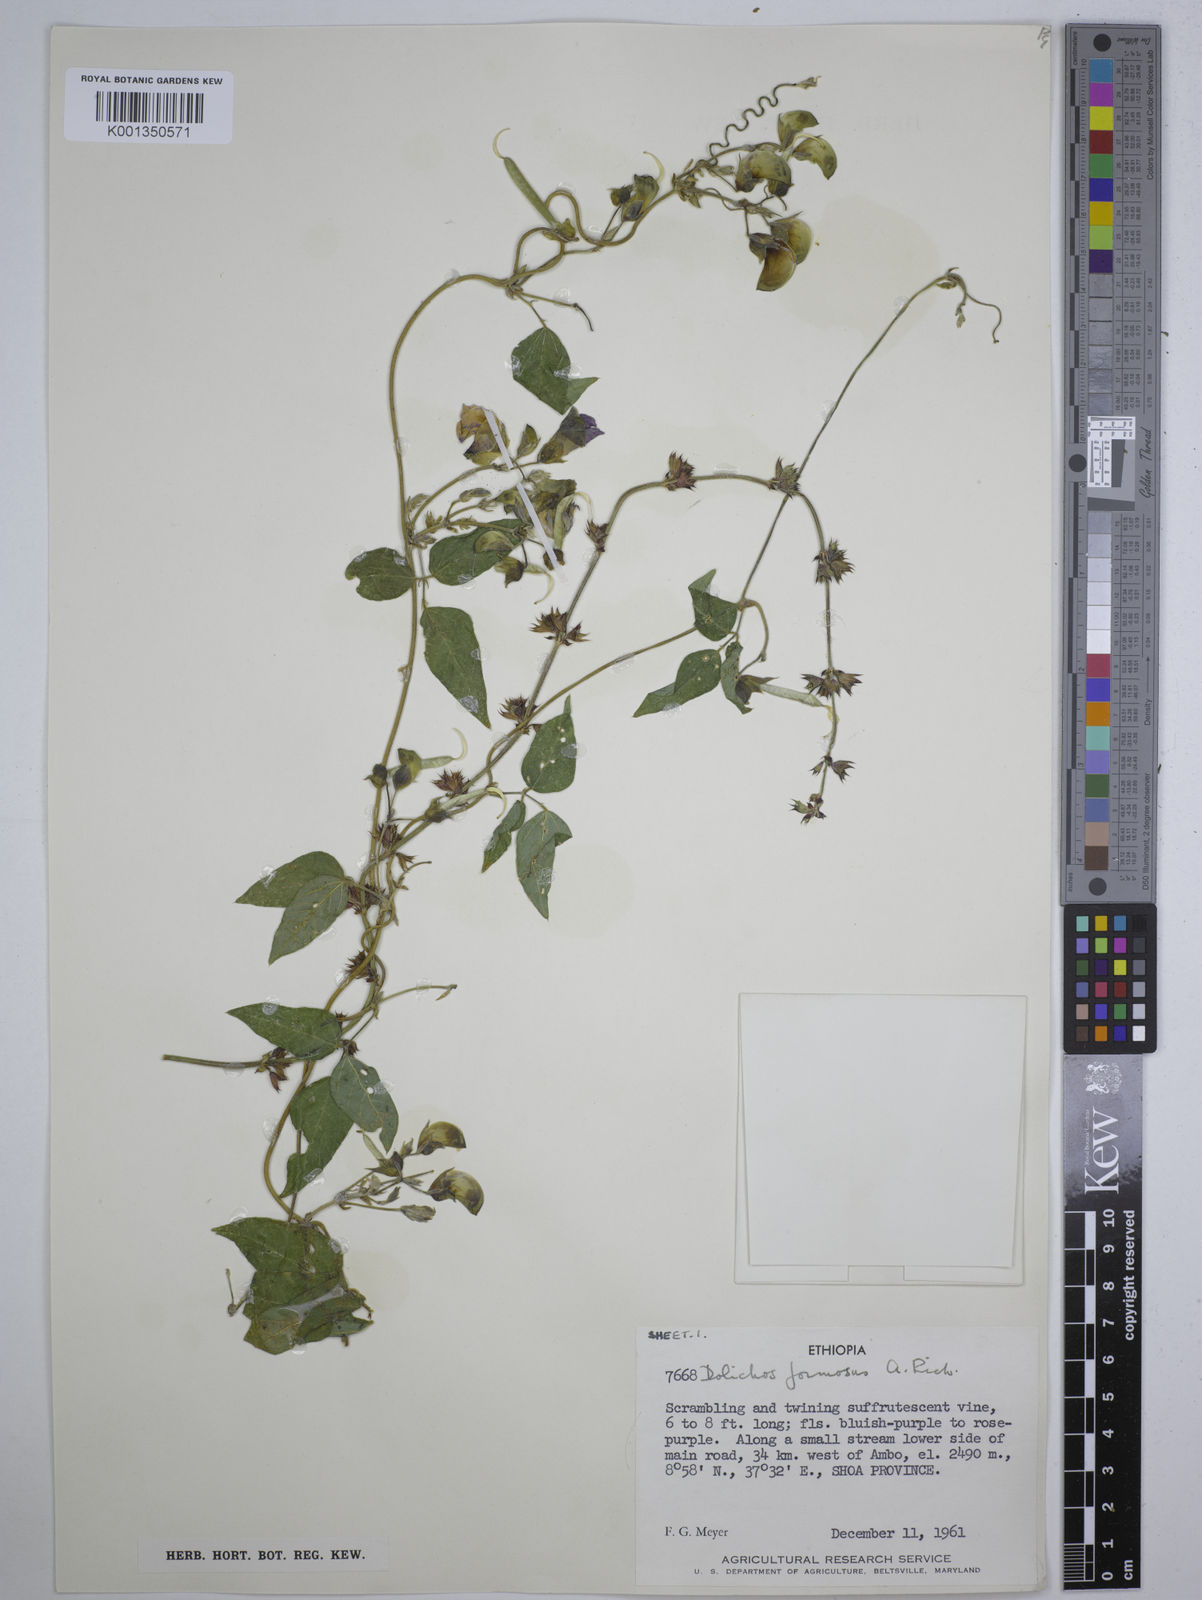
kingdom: Plantae
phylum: Tracheophyta
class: Magnoliopsida
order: Fabales
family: Fabaceae
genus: Dolichos
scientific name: Dolichos
